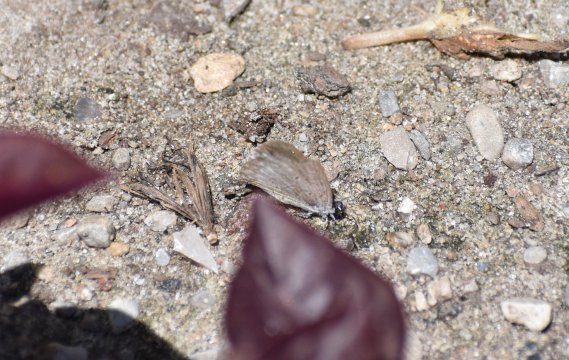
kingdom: Animalia
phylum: Arthropoda
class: Insecta
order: Lepidoptera
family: Lycaenidae
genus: Celastrina
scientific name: Celastrina
